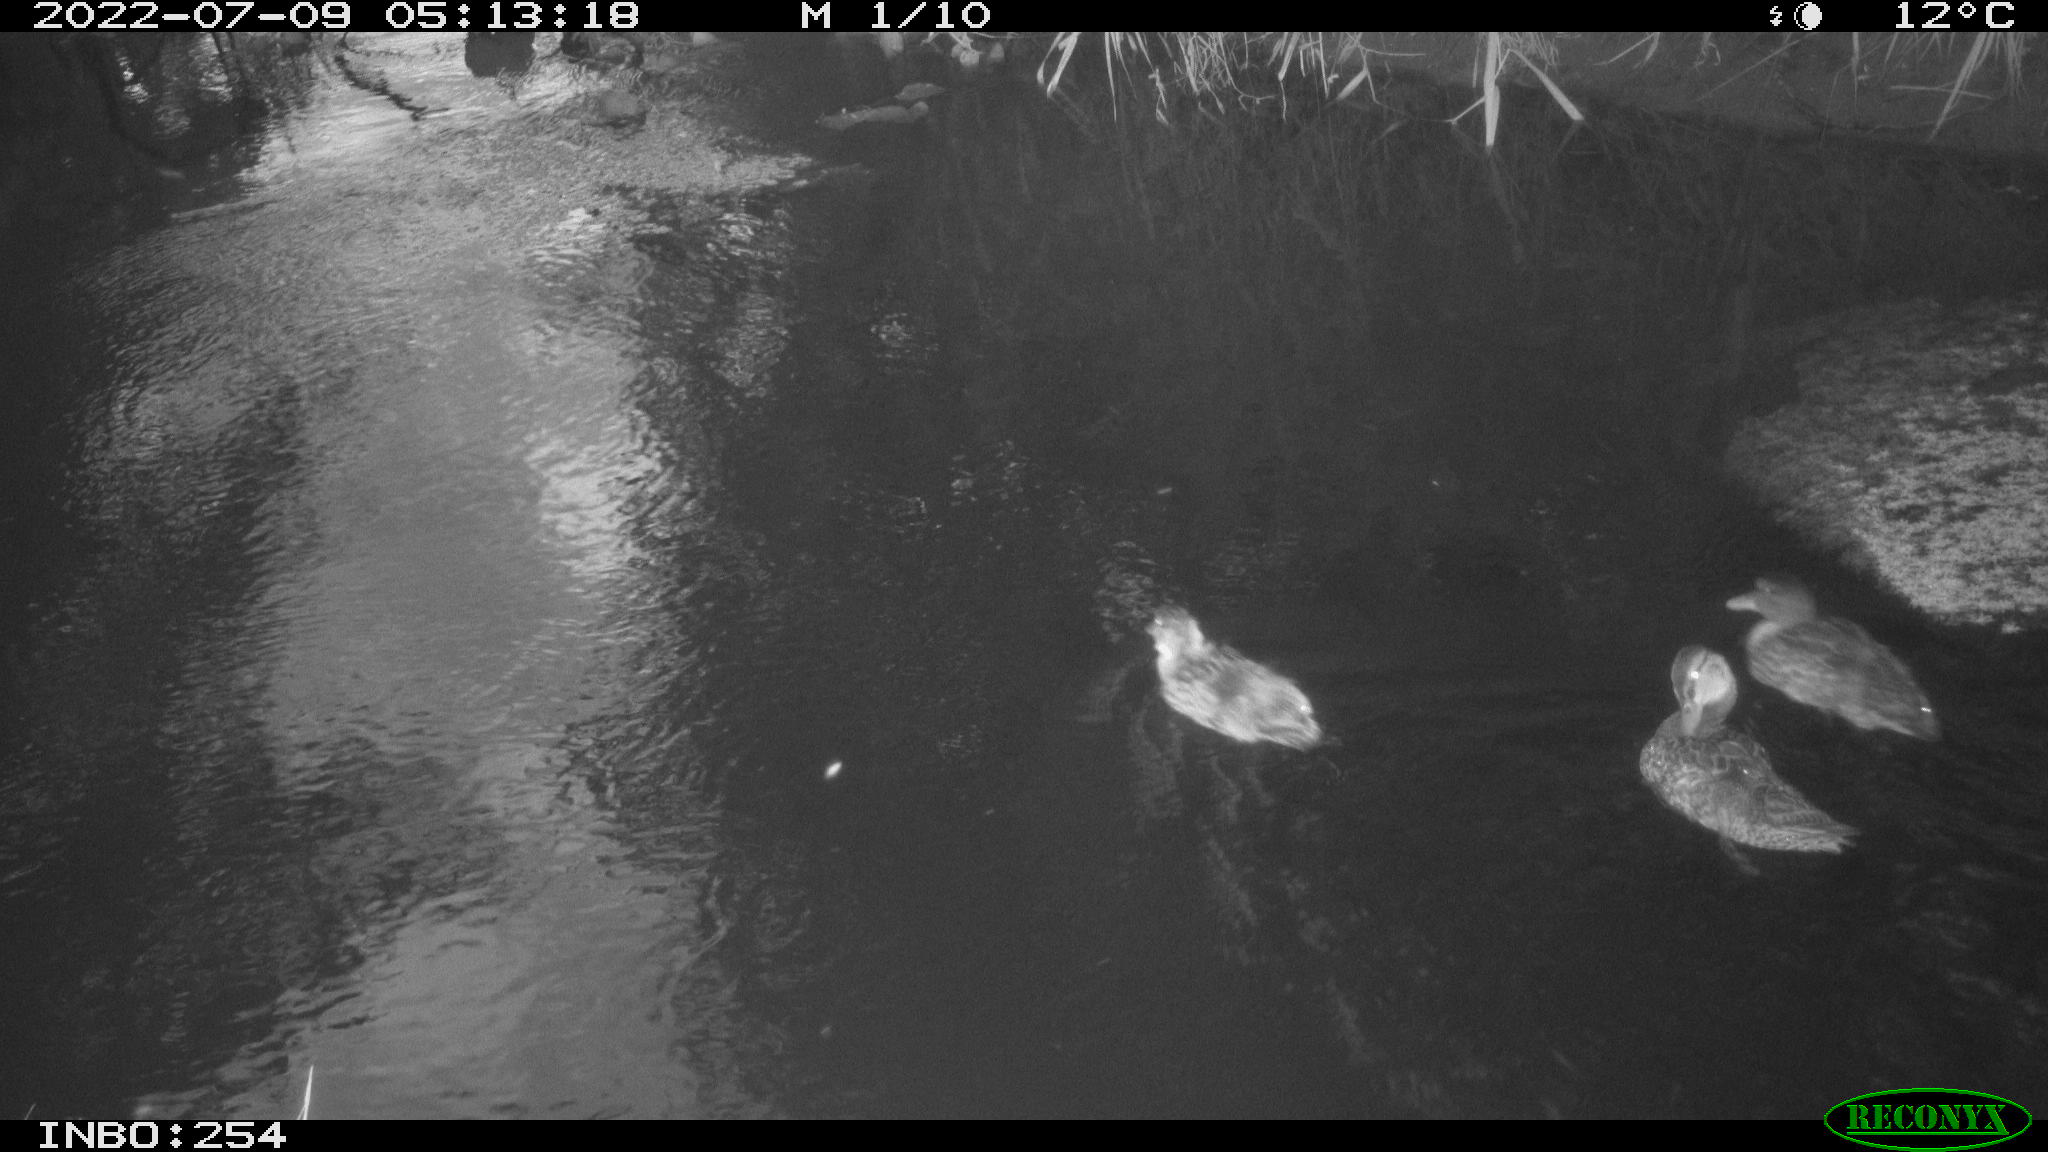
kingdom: Animalia
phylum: Chordata
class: Aves
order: Anseriformes
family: Anatidae
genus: Anas
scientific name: Anas platyrhynchos
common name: Mallard
